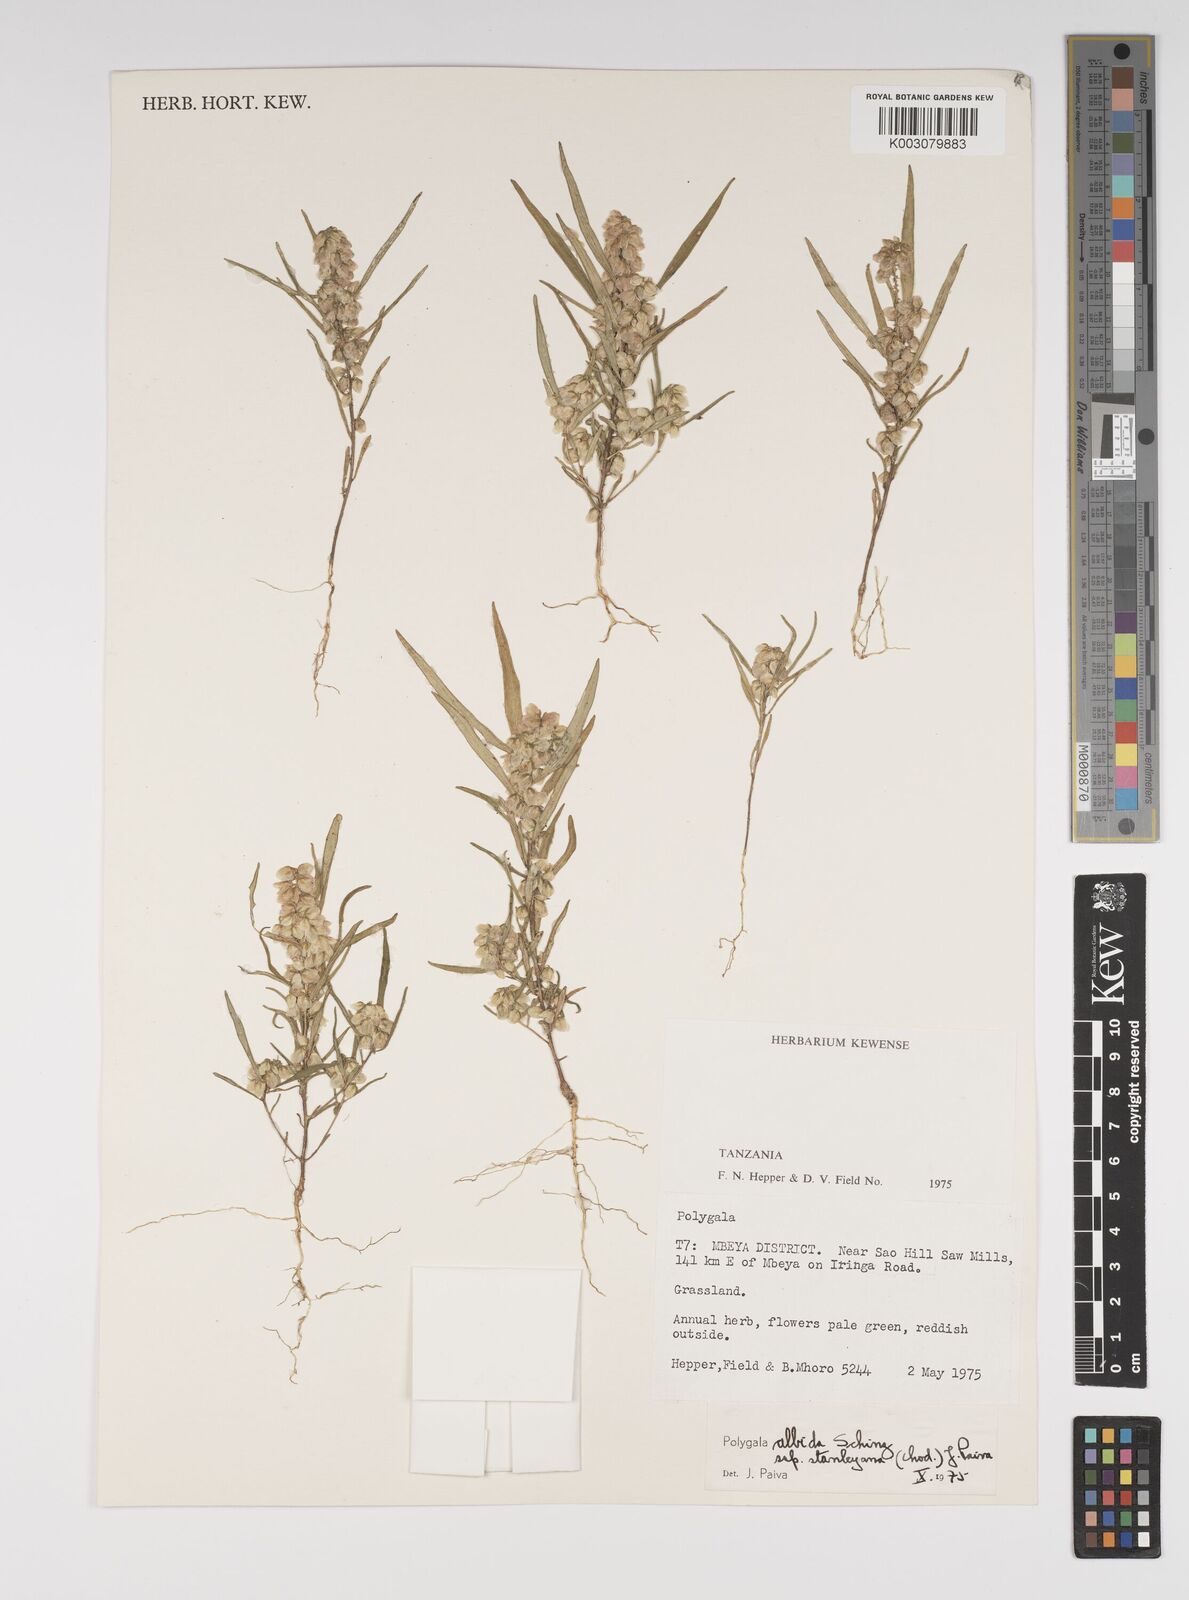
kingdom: Plantae
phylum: Tracheophyta
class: Magnoliopsida
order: Fabales
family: Polygalaceae
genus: Polygala
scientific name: Polygala albida
